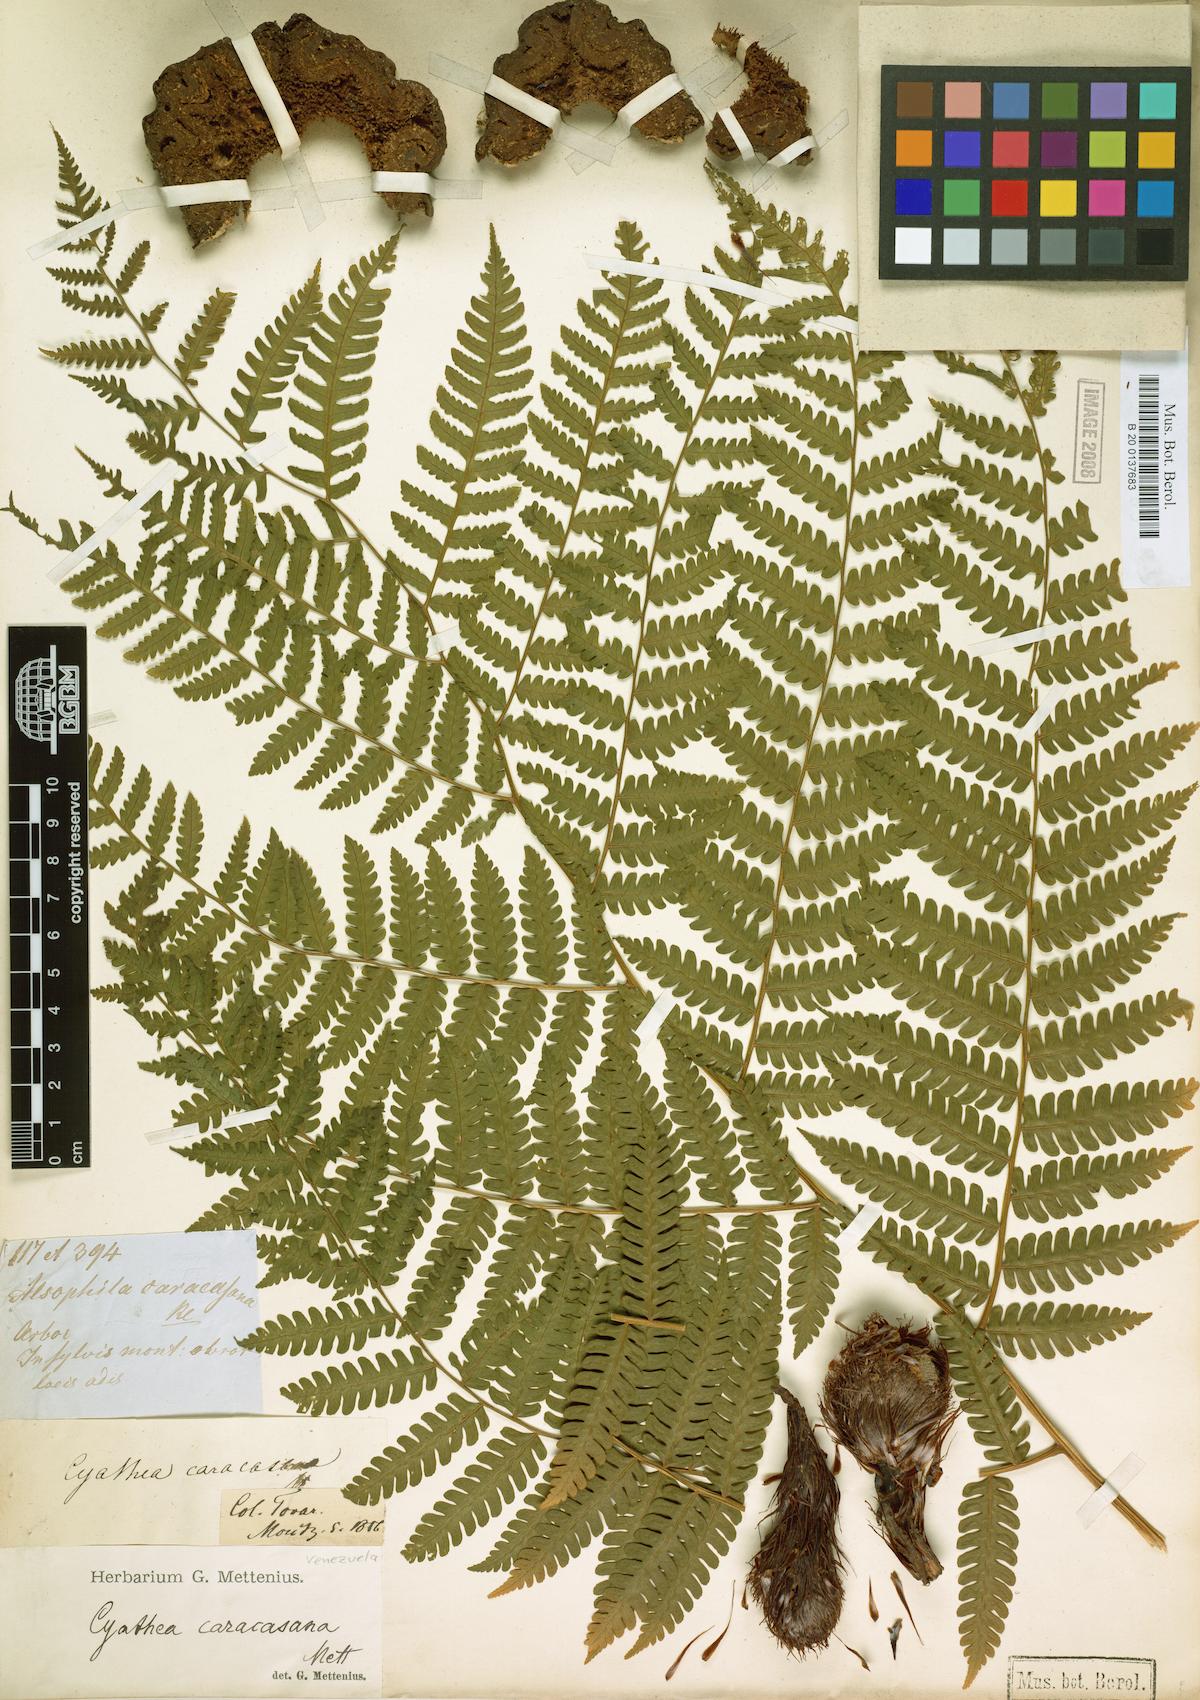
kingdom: Plantae
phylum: Tracheophyta
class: Polypodiopsida
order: Cyatheales
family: Cyatheaceae
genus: Cyathea
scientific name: Cyathea caracasana
